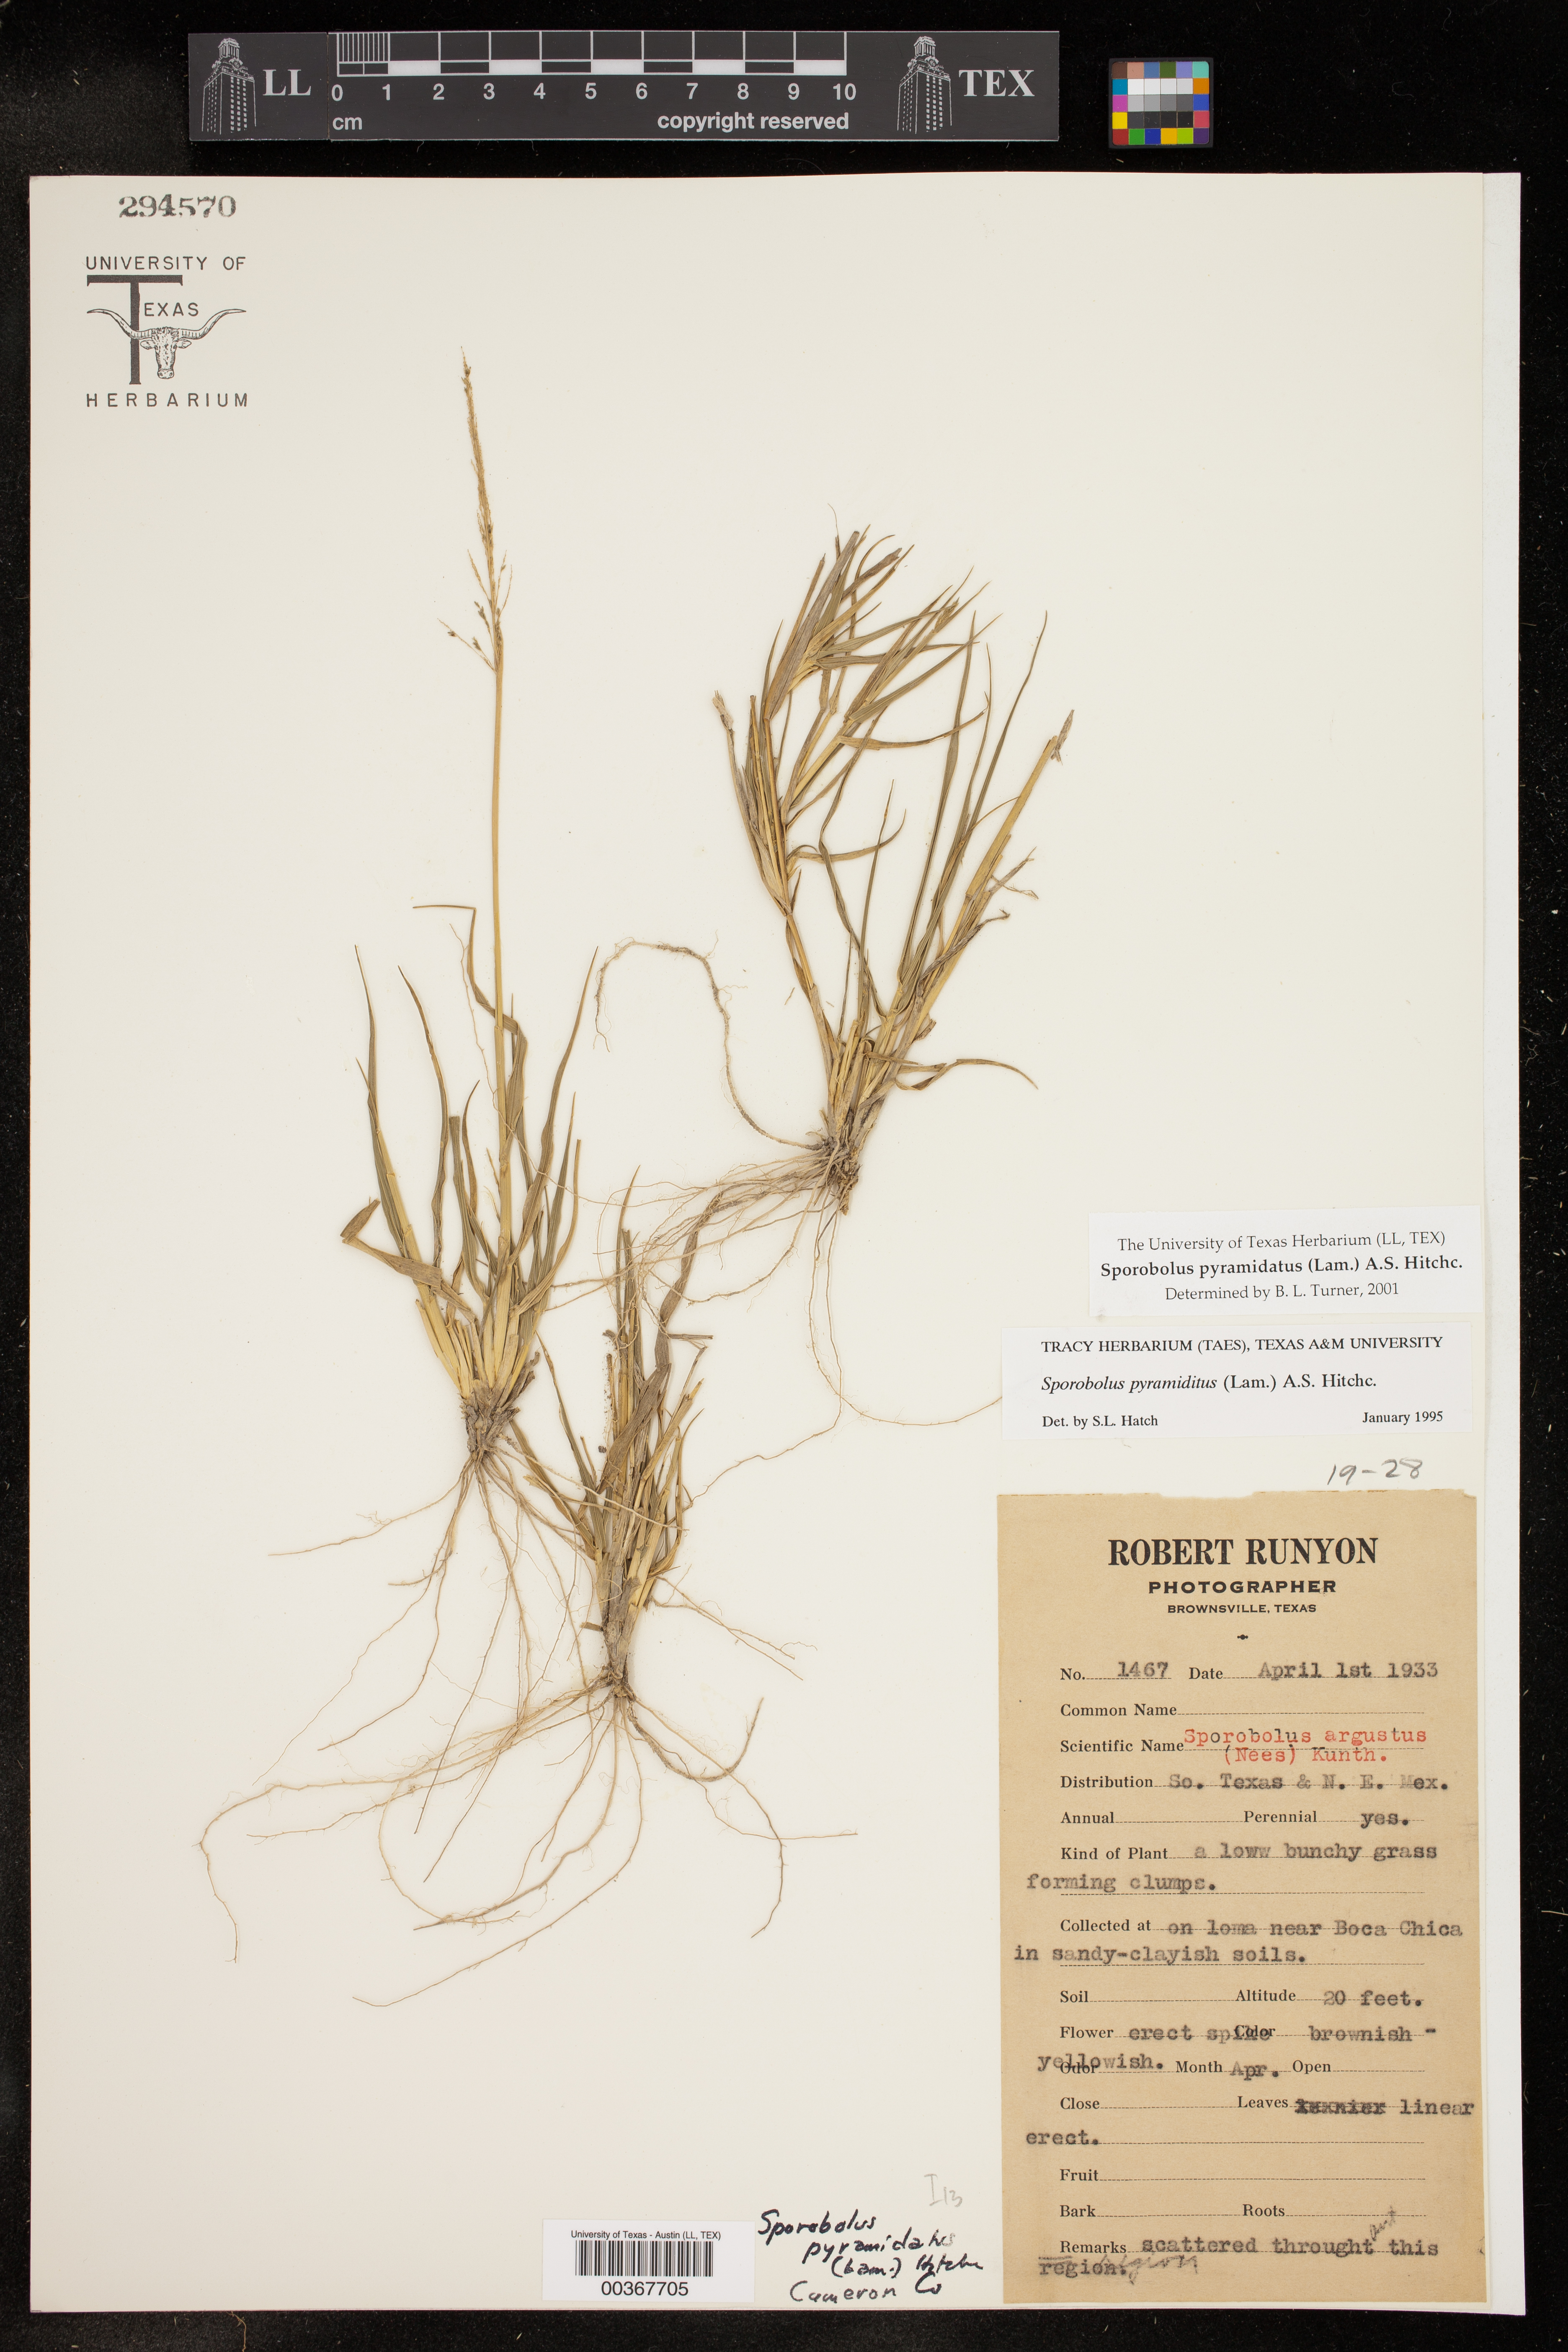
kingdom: Plantae
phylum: Tracheophyta
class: Liliopsida
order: Poales
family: Poaceae
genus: Sporobolus
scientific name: Sporobolus pyramidatus
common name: Whorled dropseed
